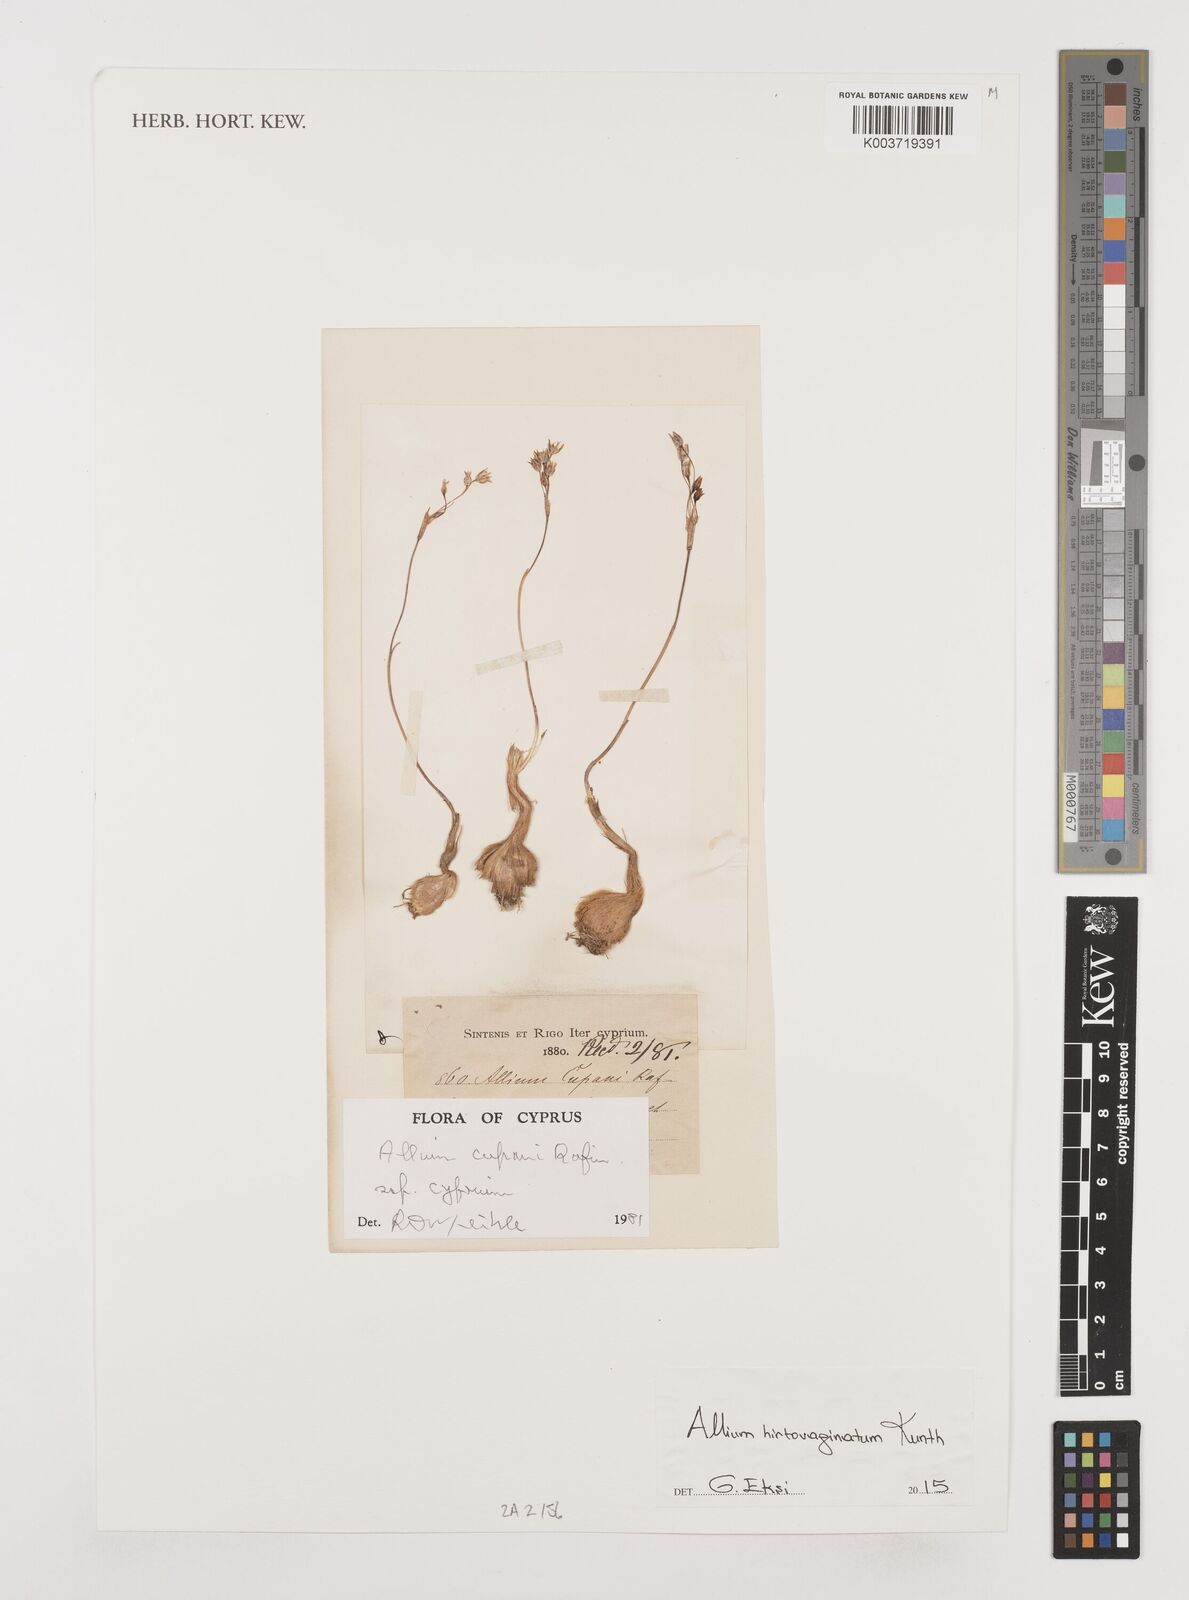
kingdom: Plantae
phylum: Tracheophyta
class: Liliopsida
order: Asparagales
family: Amaryllidaceae
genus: Allium
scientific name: Allium cupani
